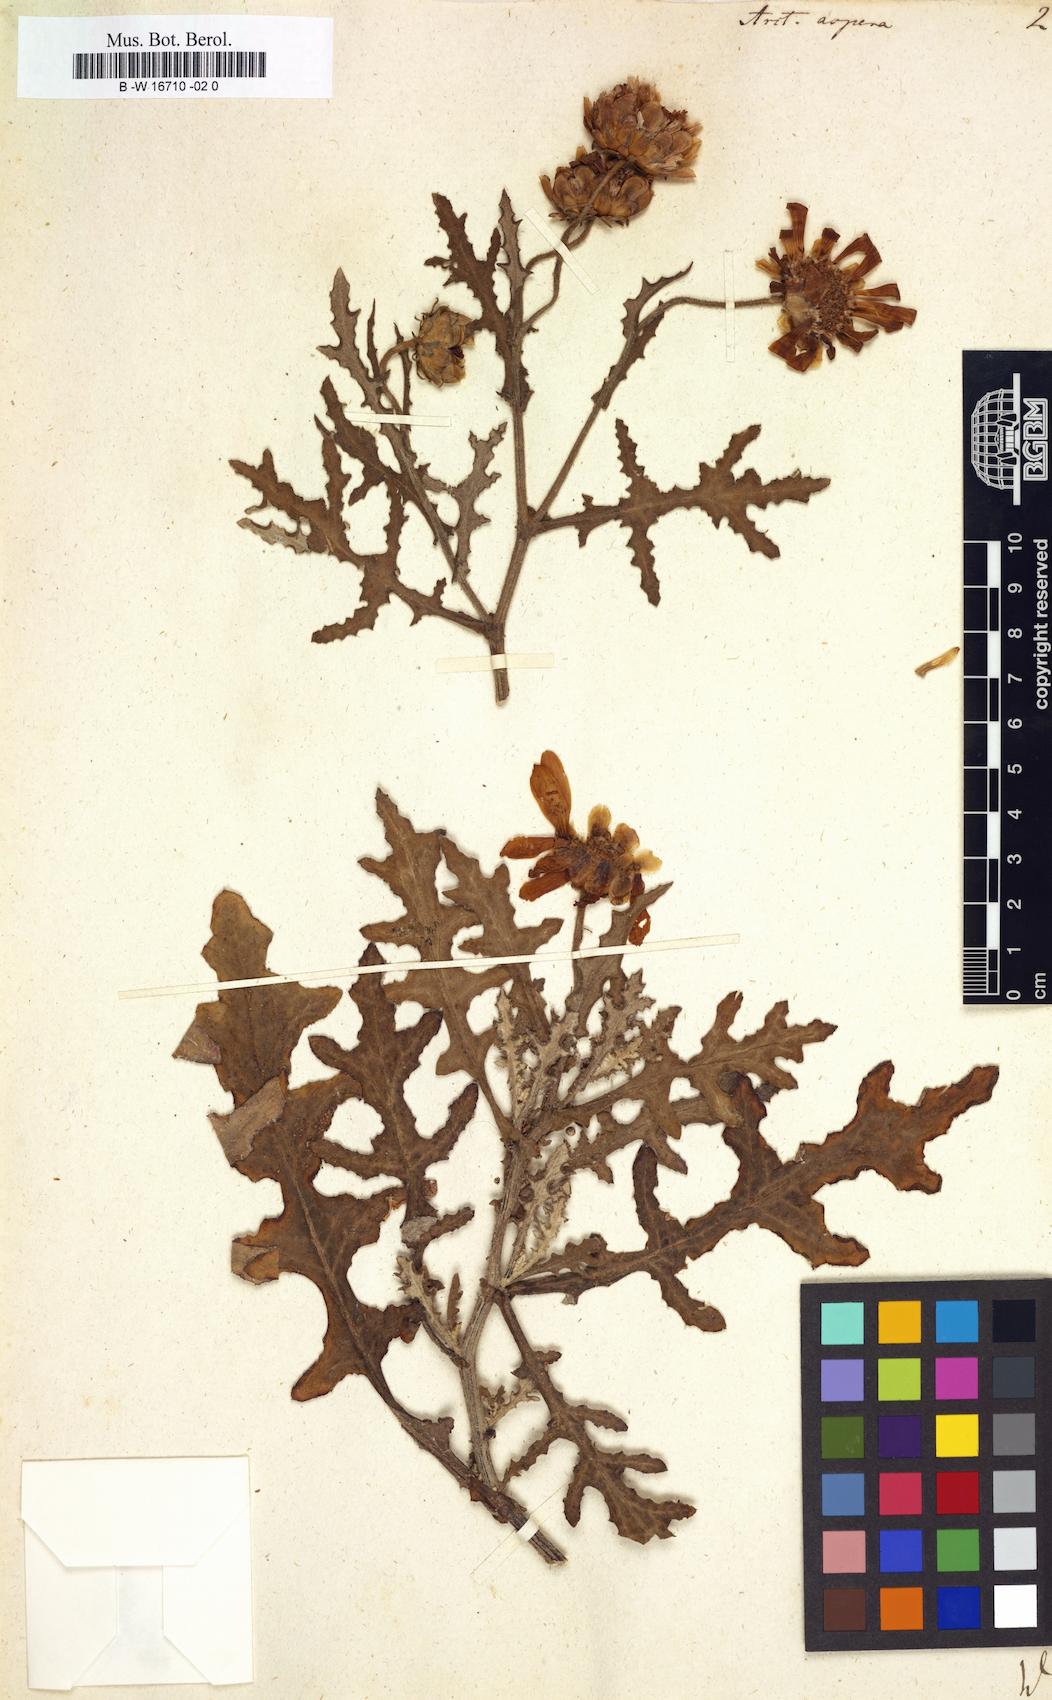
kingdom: Plantae
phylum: Tracheophyta
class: Magnoliopsida
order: Asterales
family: Asteraceae
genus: Arctotis
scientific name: Arctotis aspera
